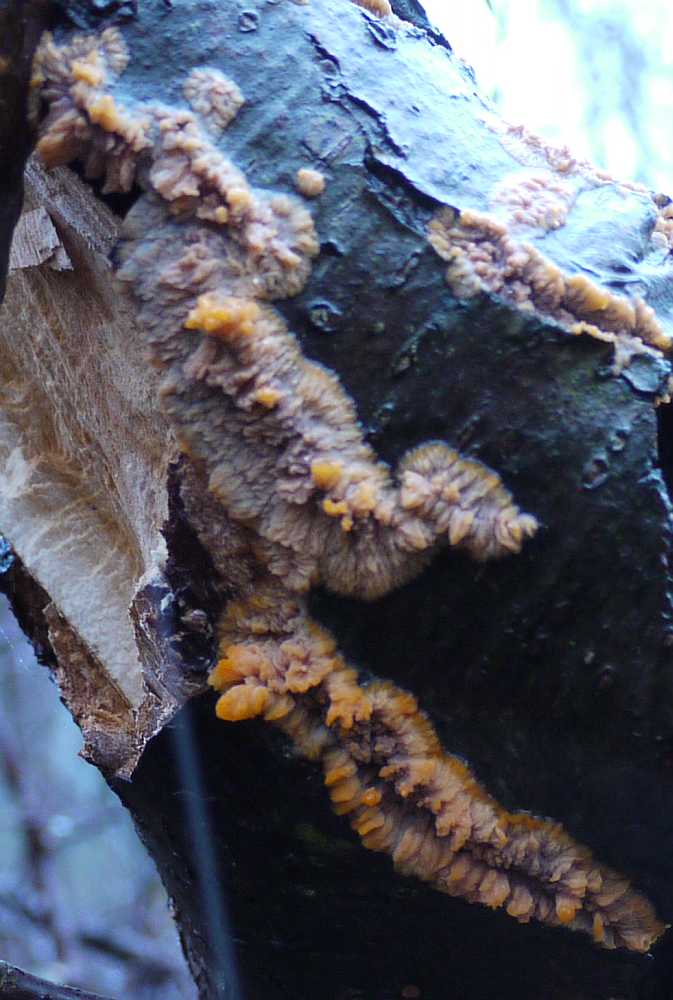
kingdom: Fungi
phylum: Basidiomycota
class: Agaricomycetes
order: Polyporales
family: Meruliaceae
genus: Phlebia
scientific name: Phlebia radiata
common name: stråle-åresvamp
